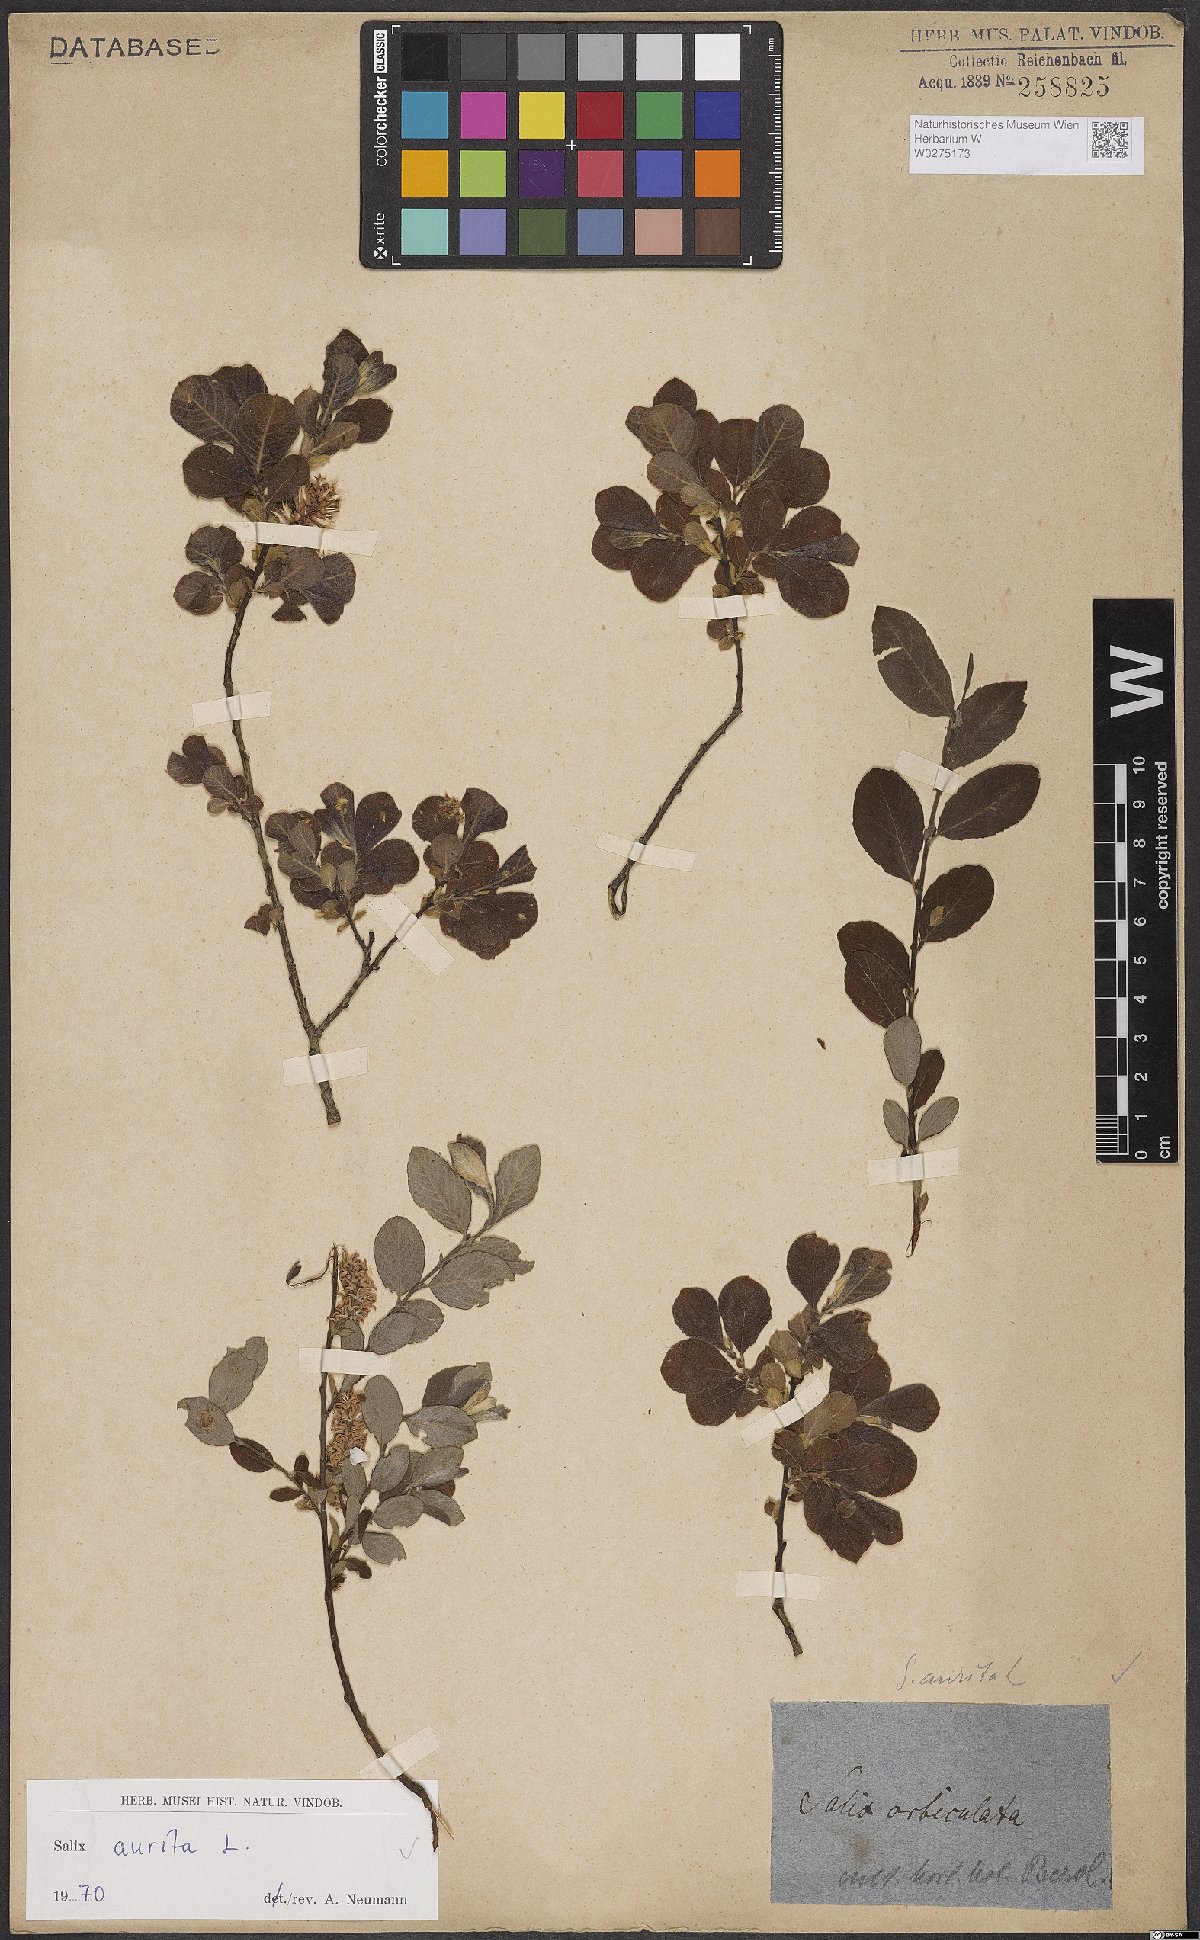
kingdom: Plantae
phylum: Tracheophyta
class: Magnoliopsida
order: Malpighiales
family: Salicaceae
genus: Salix
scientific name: Salix aurita
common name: Eared willow
